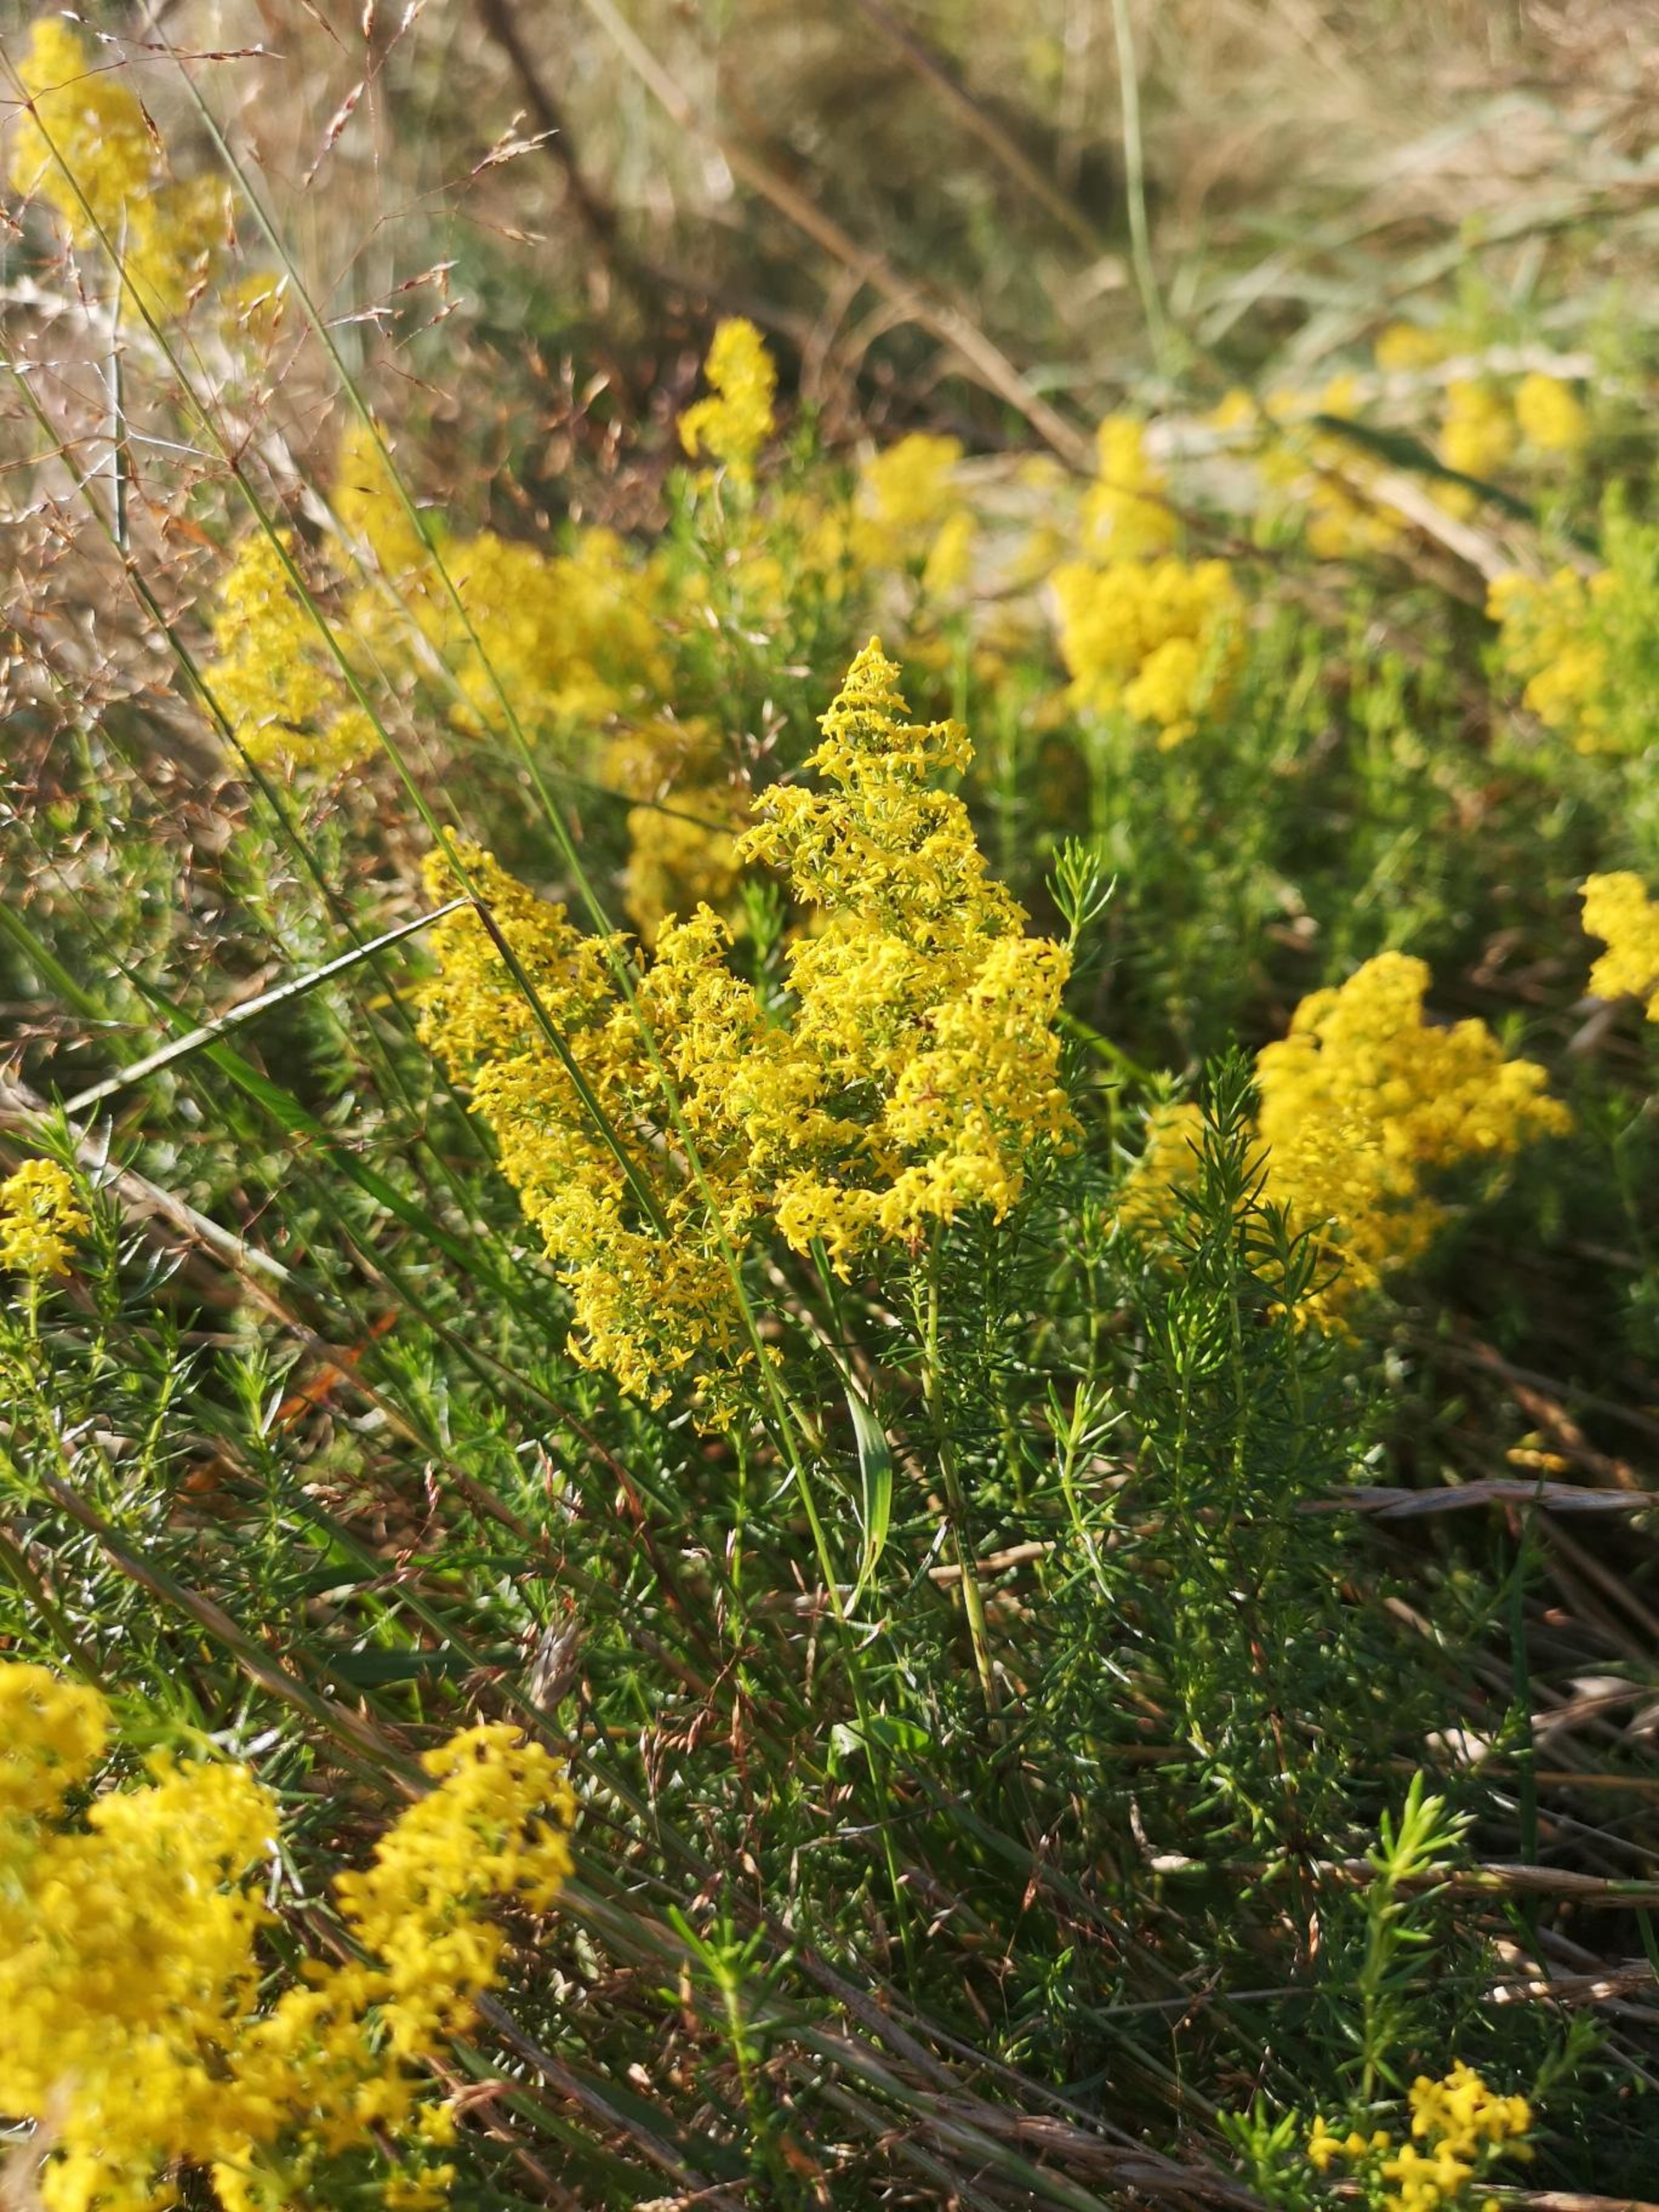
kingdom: Plantae
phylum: Tracheophyta
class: Magnoliopsida
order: Gentianales
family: Rubiaceae
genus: Galium
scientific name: Galium verum
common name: Gul snerre
